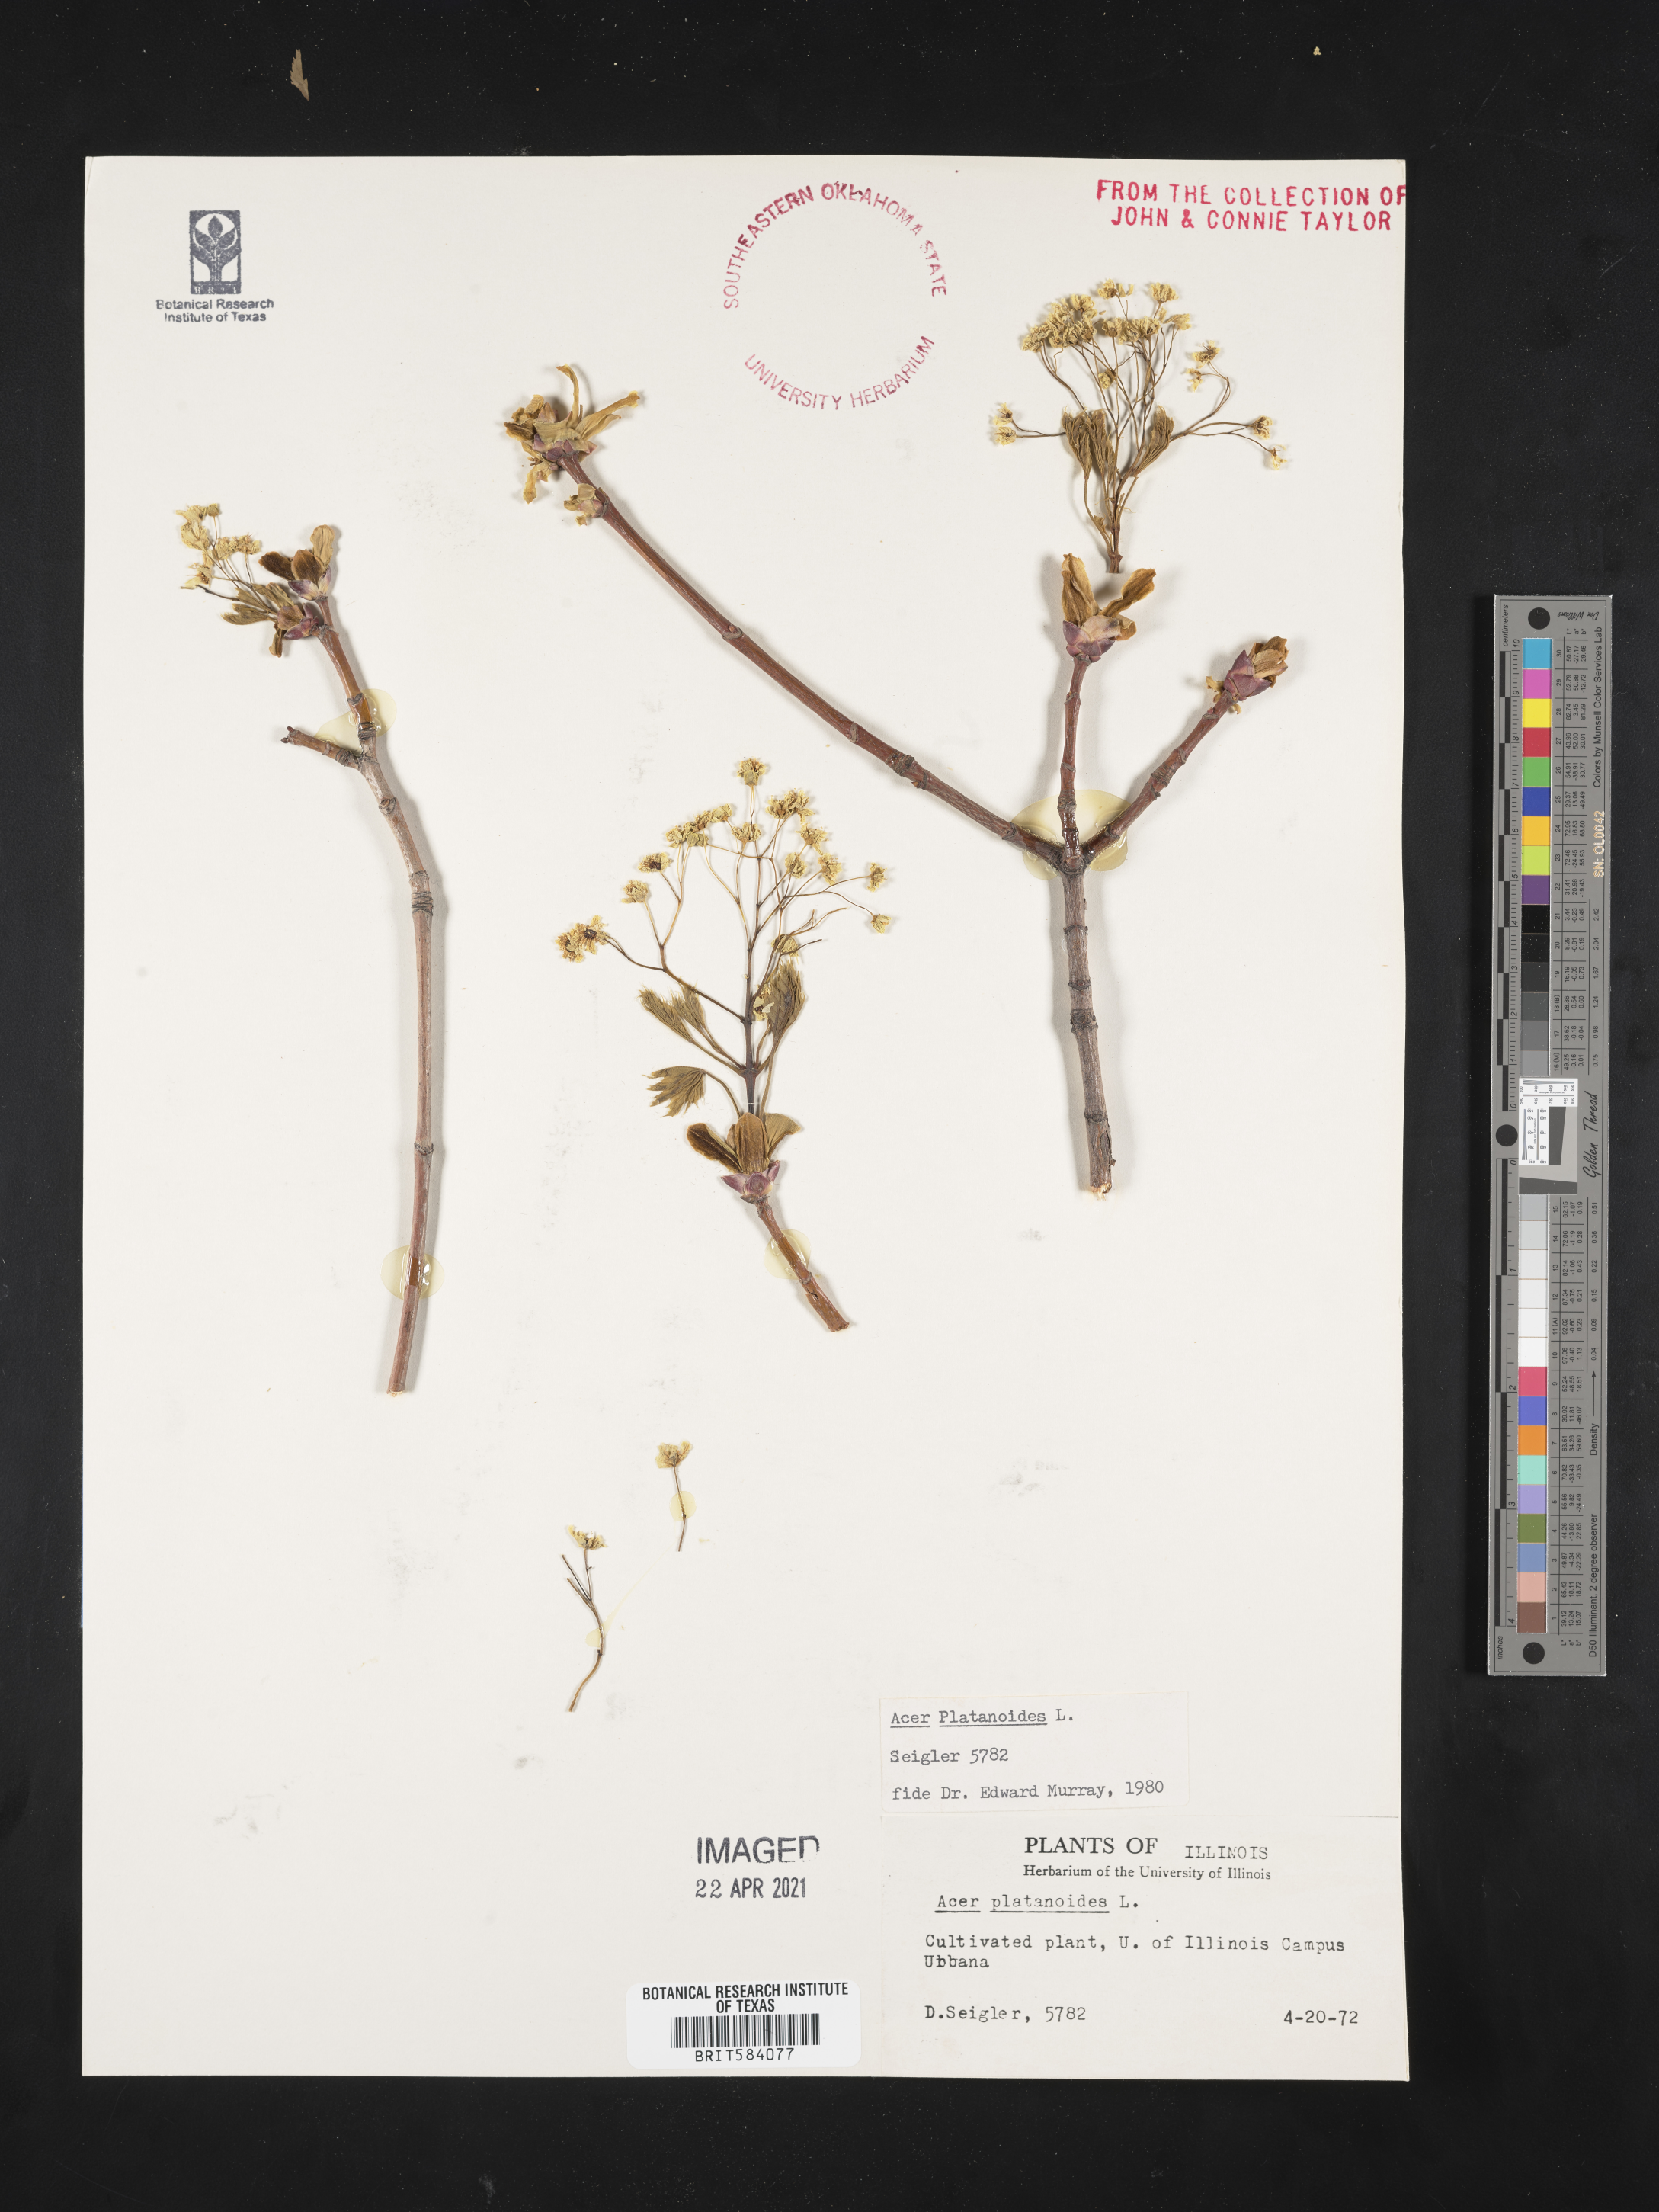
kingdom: Plantae
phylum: Tracheophyta
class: Magnoliopsida
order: Sapindales
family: Sapindaceae
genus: Acer
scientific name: Acer platanoides
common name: Norway maple
